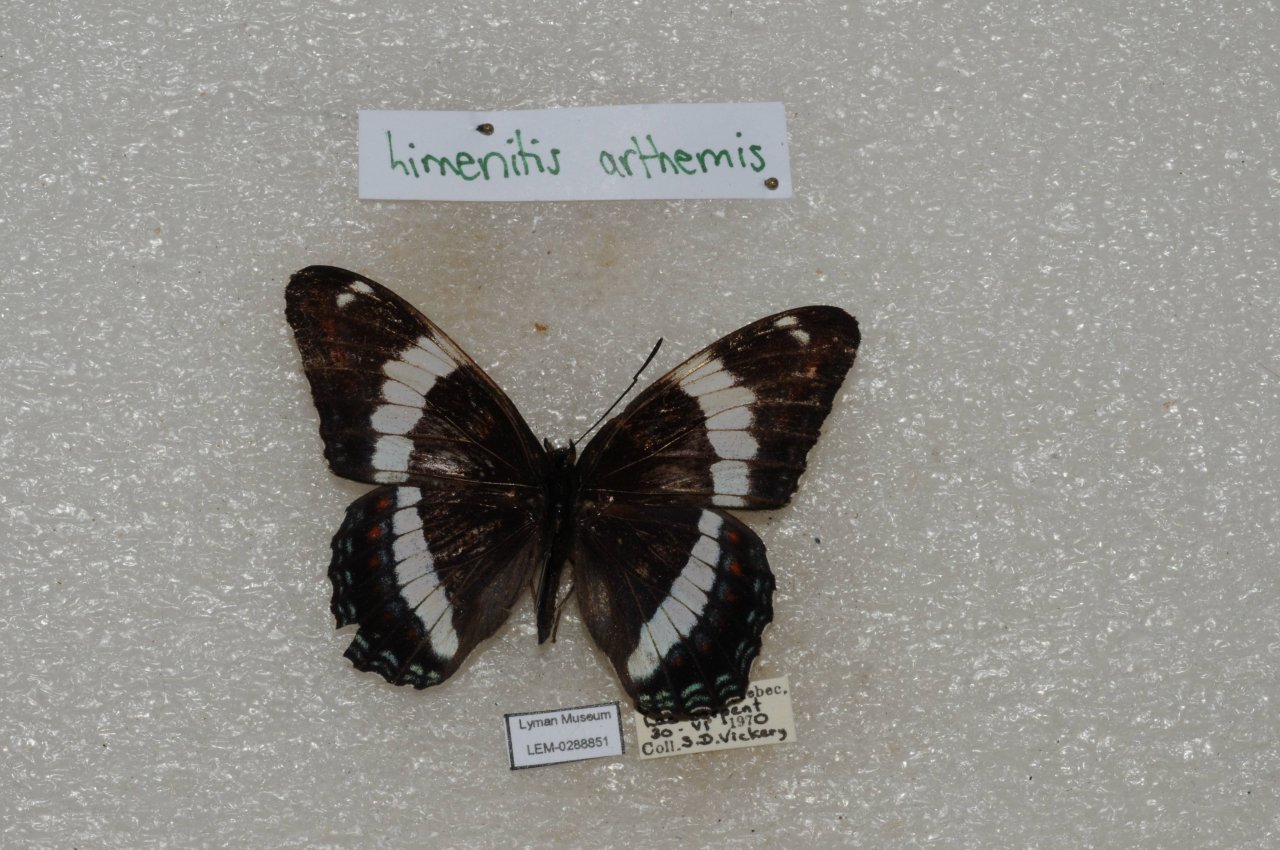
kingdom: Animalia
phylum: Arthropoda
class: Insecta
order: Lepidoptera
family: Nymphalidae
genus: Limenitis
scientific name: Limenitis arthemis
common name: Red-spotted Admiral
